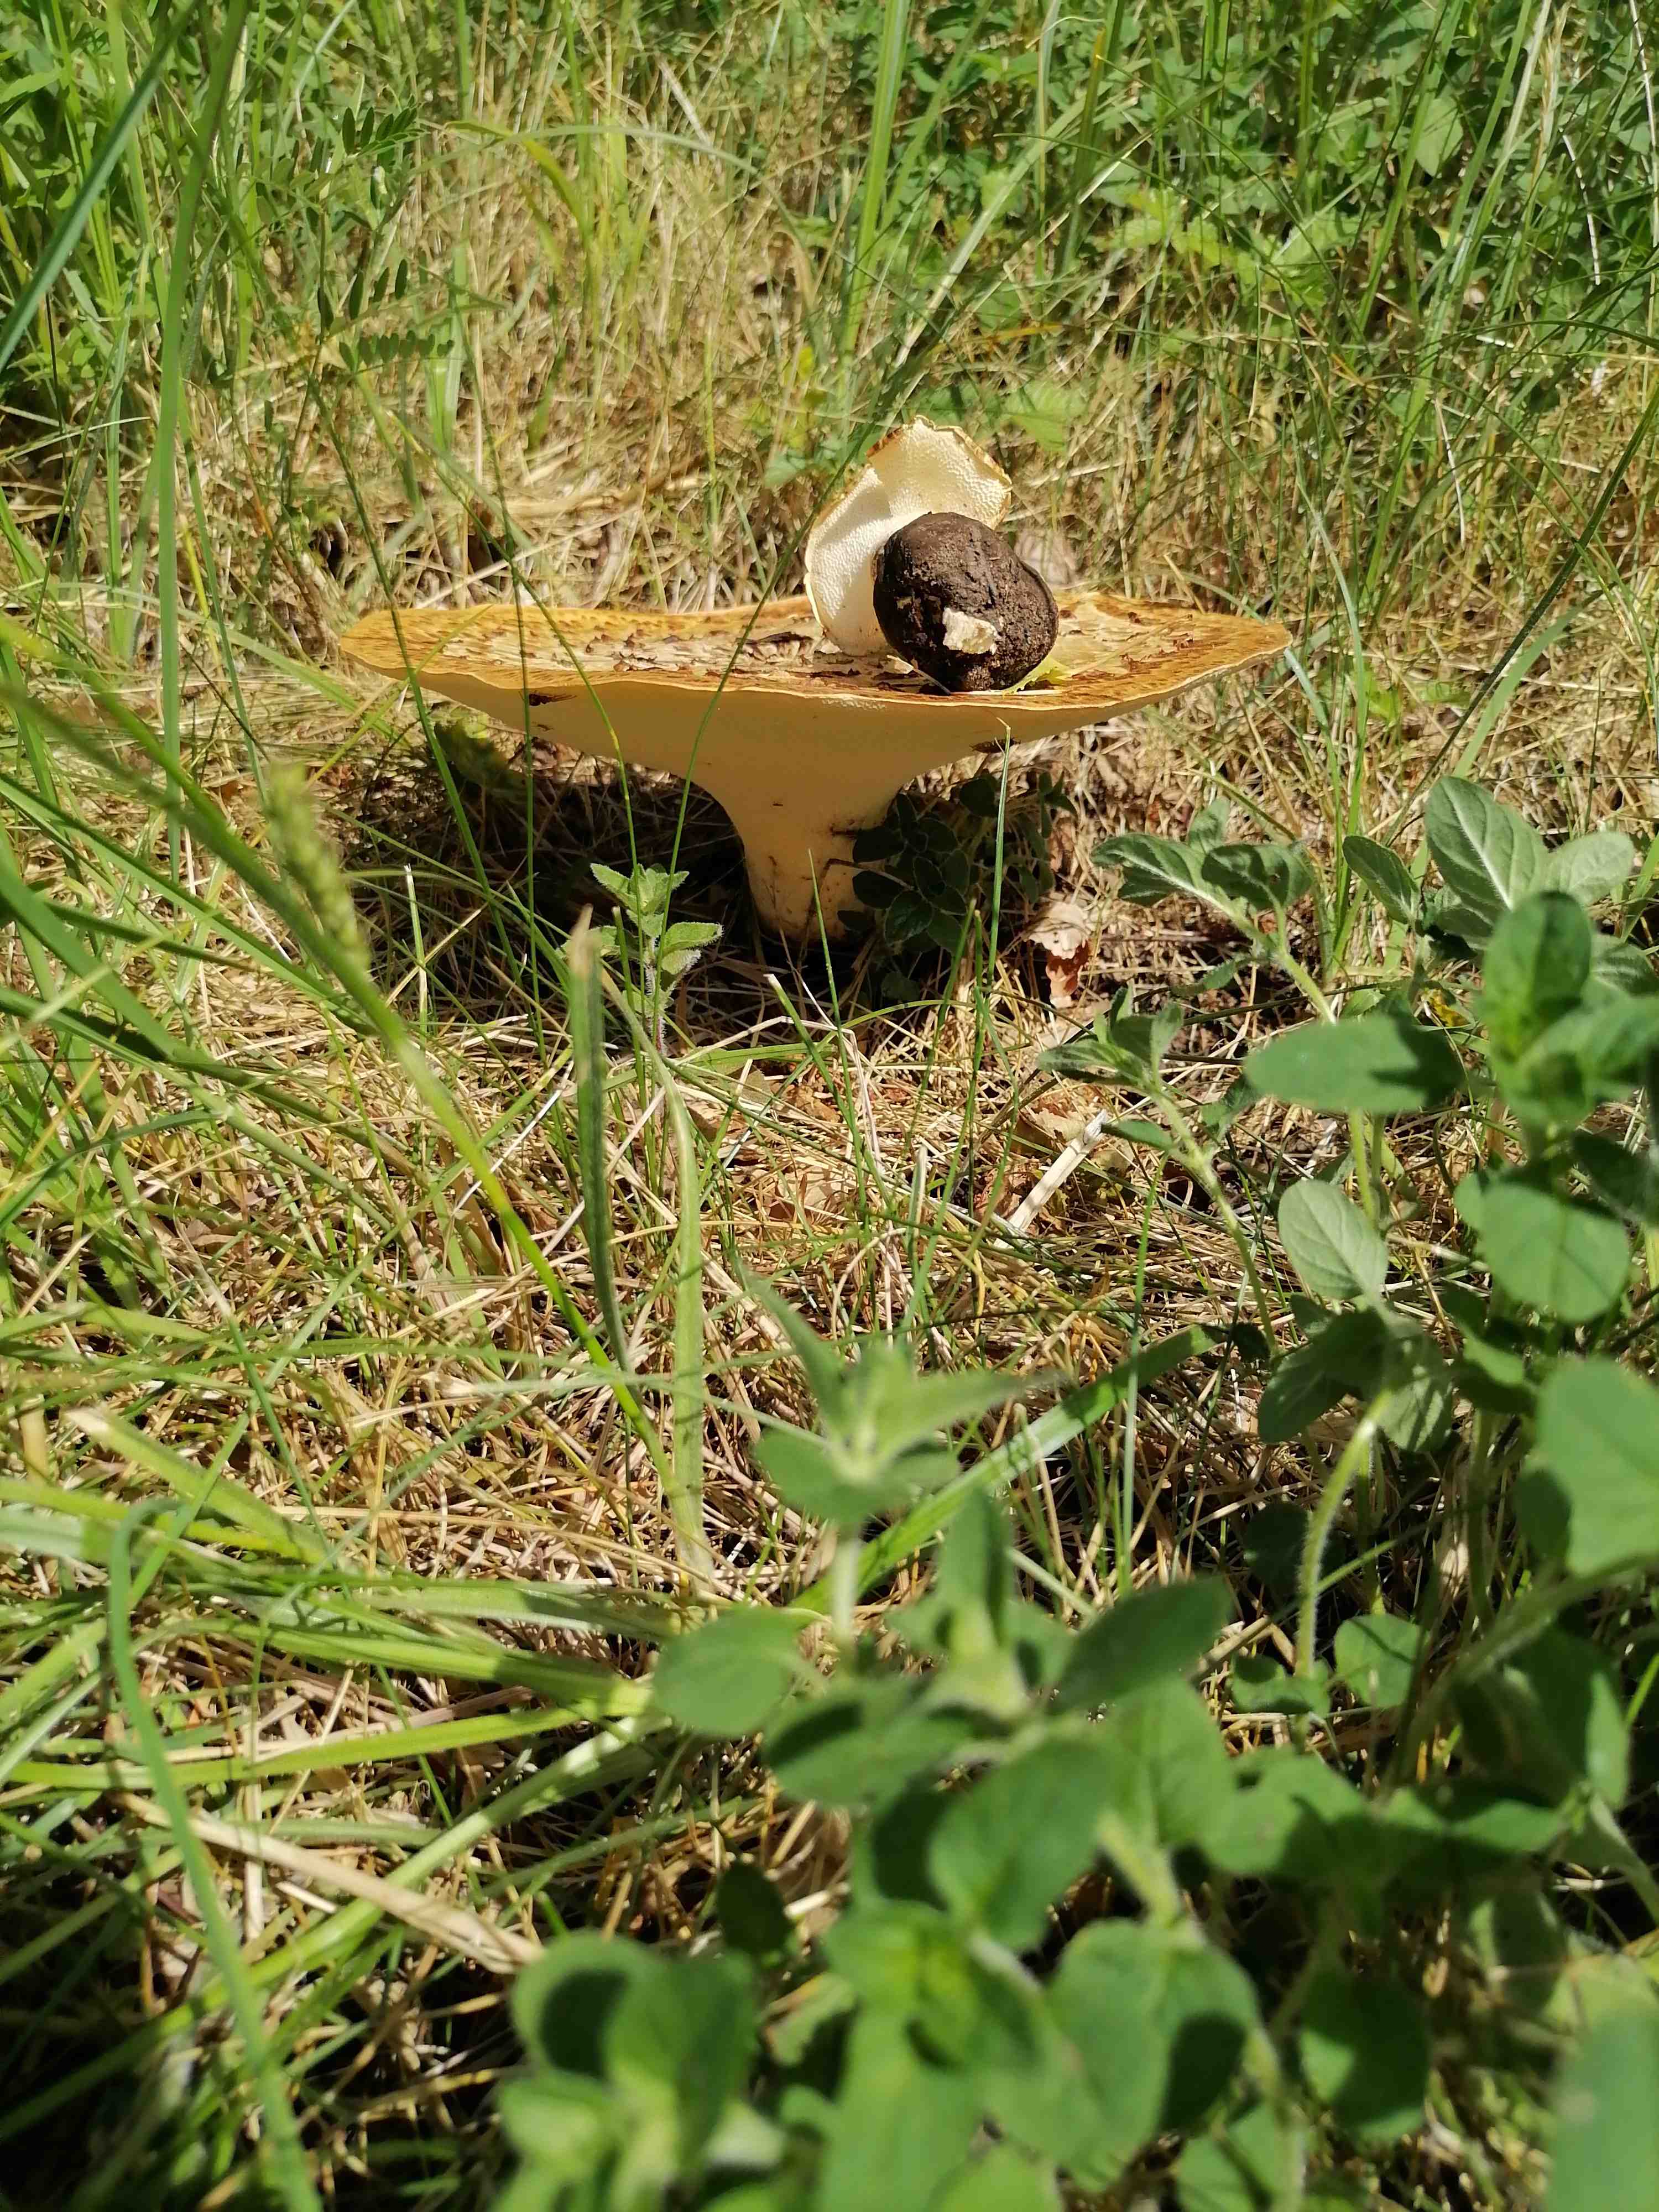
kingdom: Fungi
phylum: Basidiomycota
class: Agaricomycetes
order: Polyporales
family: Polyporaceae
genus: Cerioporus
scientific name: Cerioporus squamosus
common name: skællet stilkporesvamp
